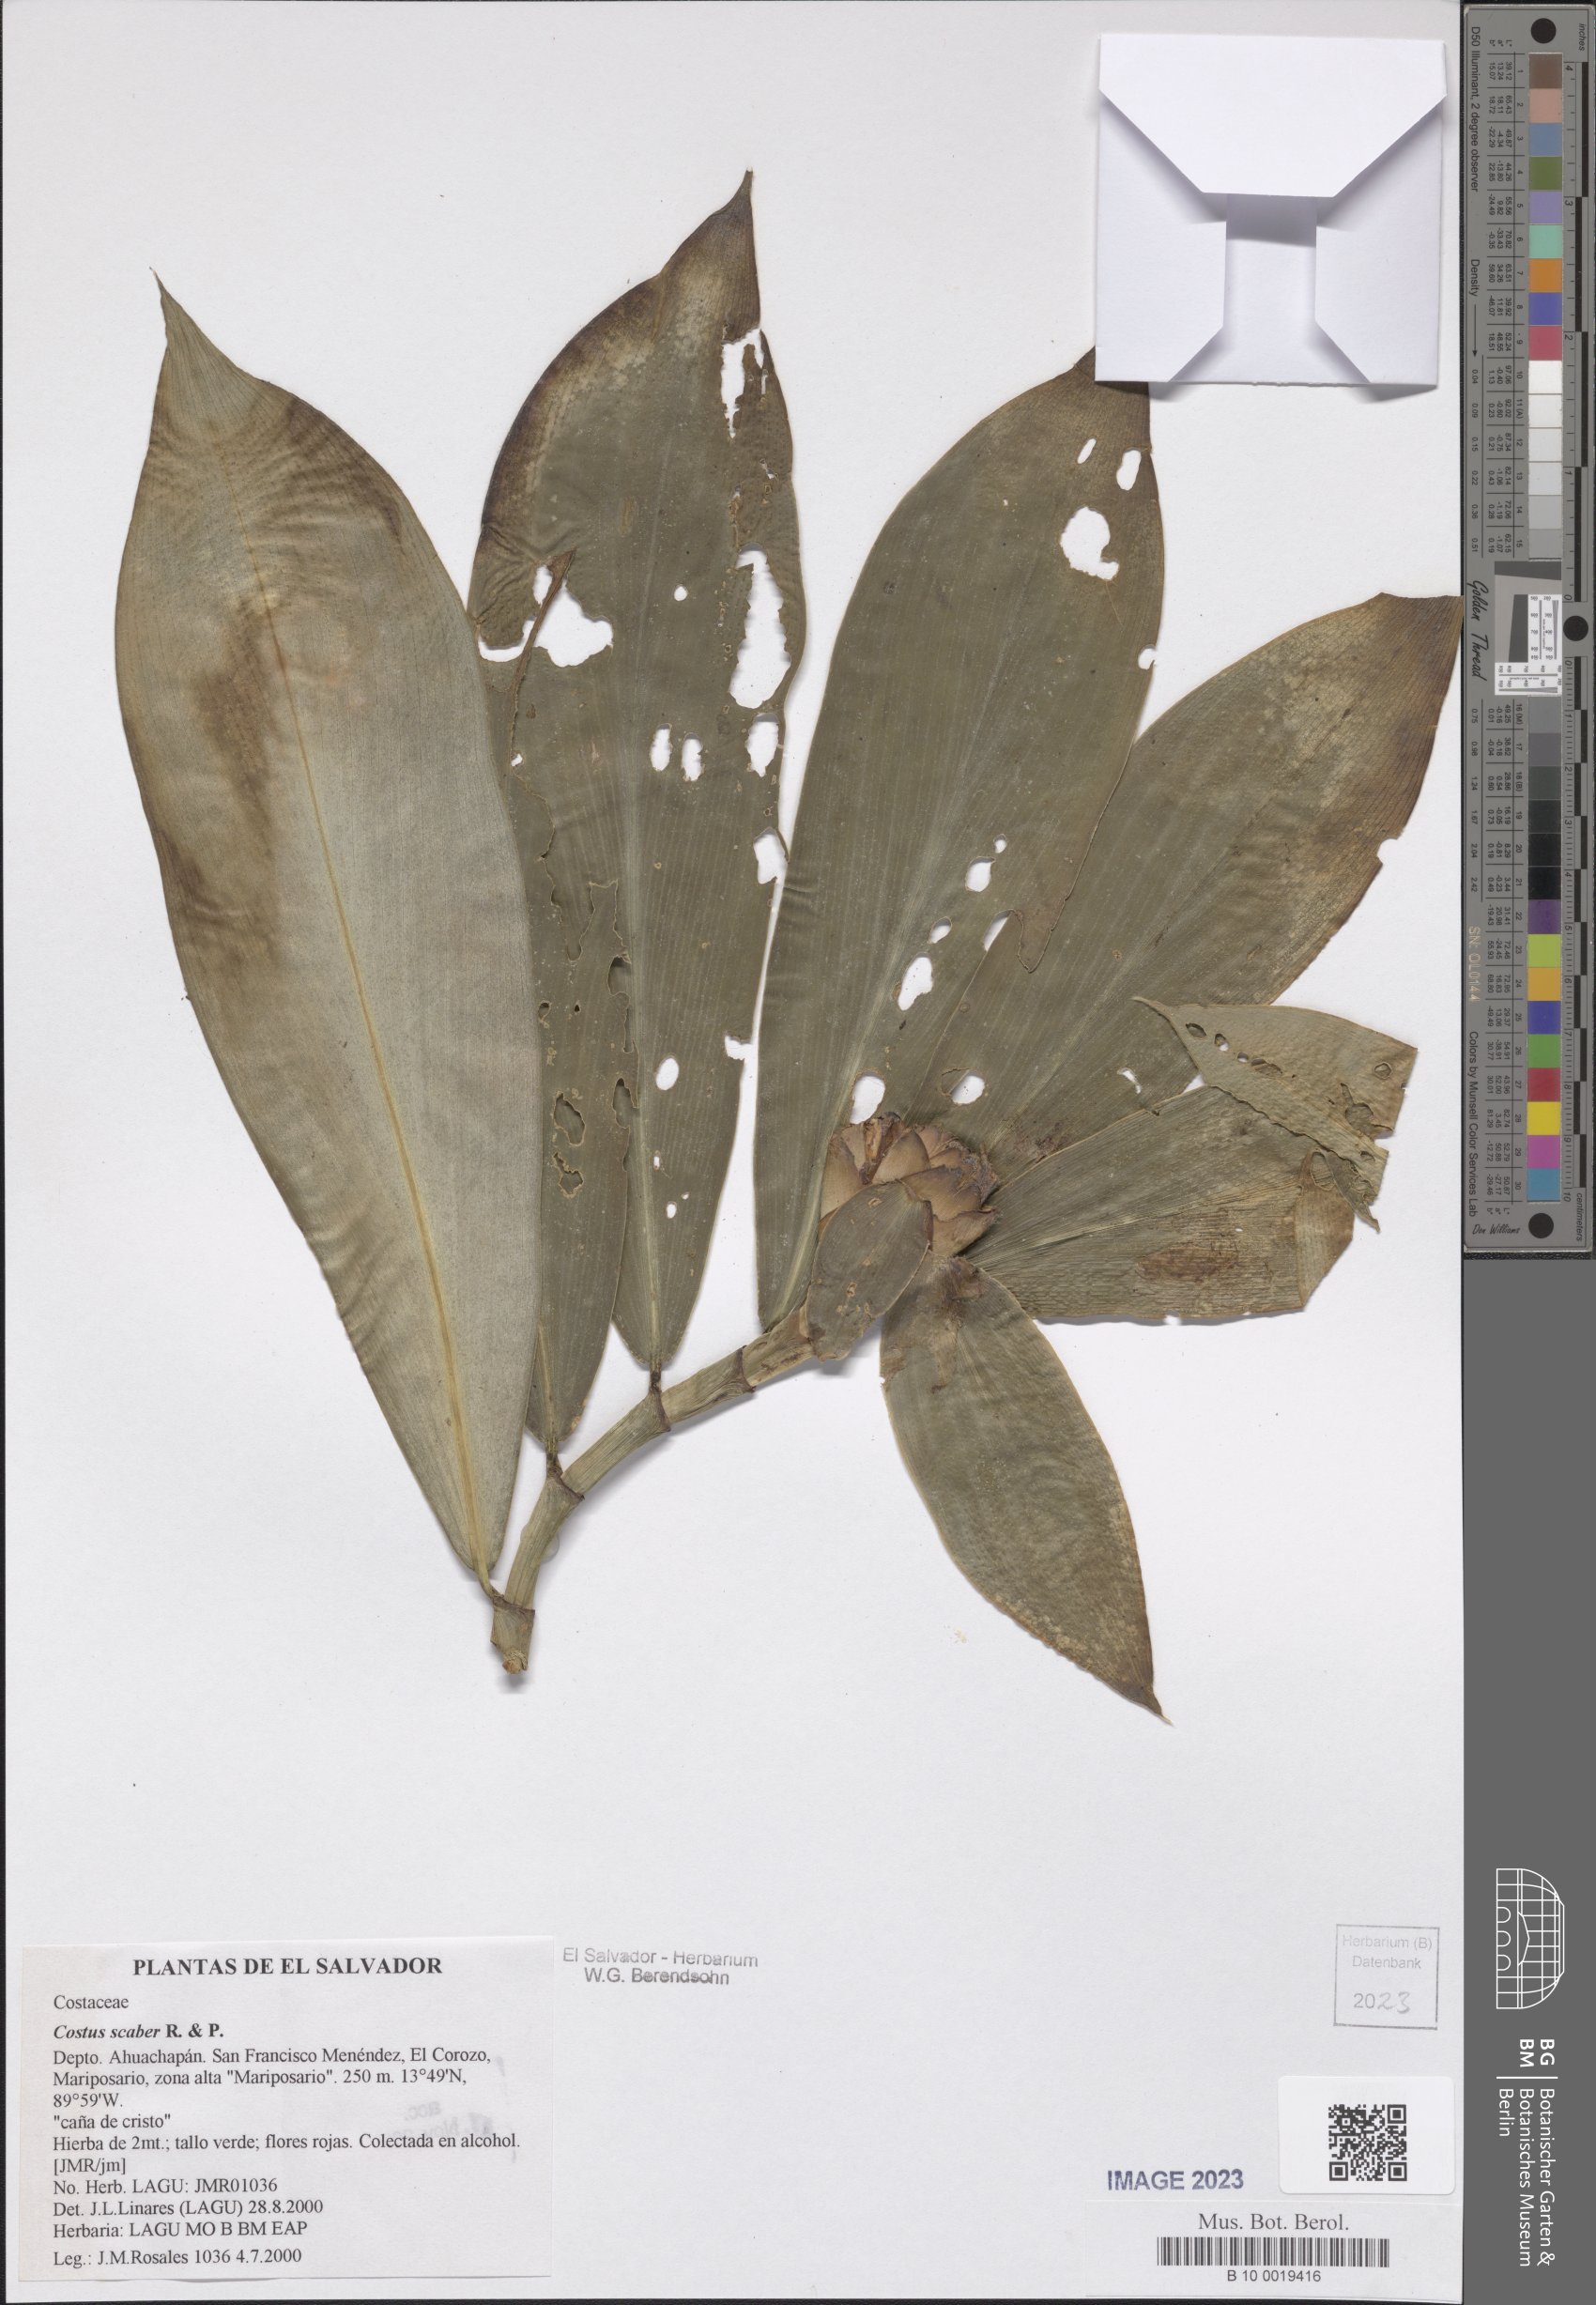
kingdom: Plantae
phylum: Tracheophyta
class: Liliopsida
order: Zingiberales
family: Costaceae
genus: Costus
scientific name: Costus scaber
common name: Spiral head ginger
